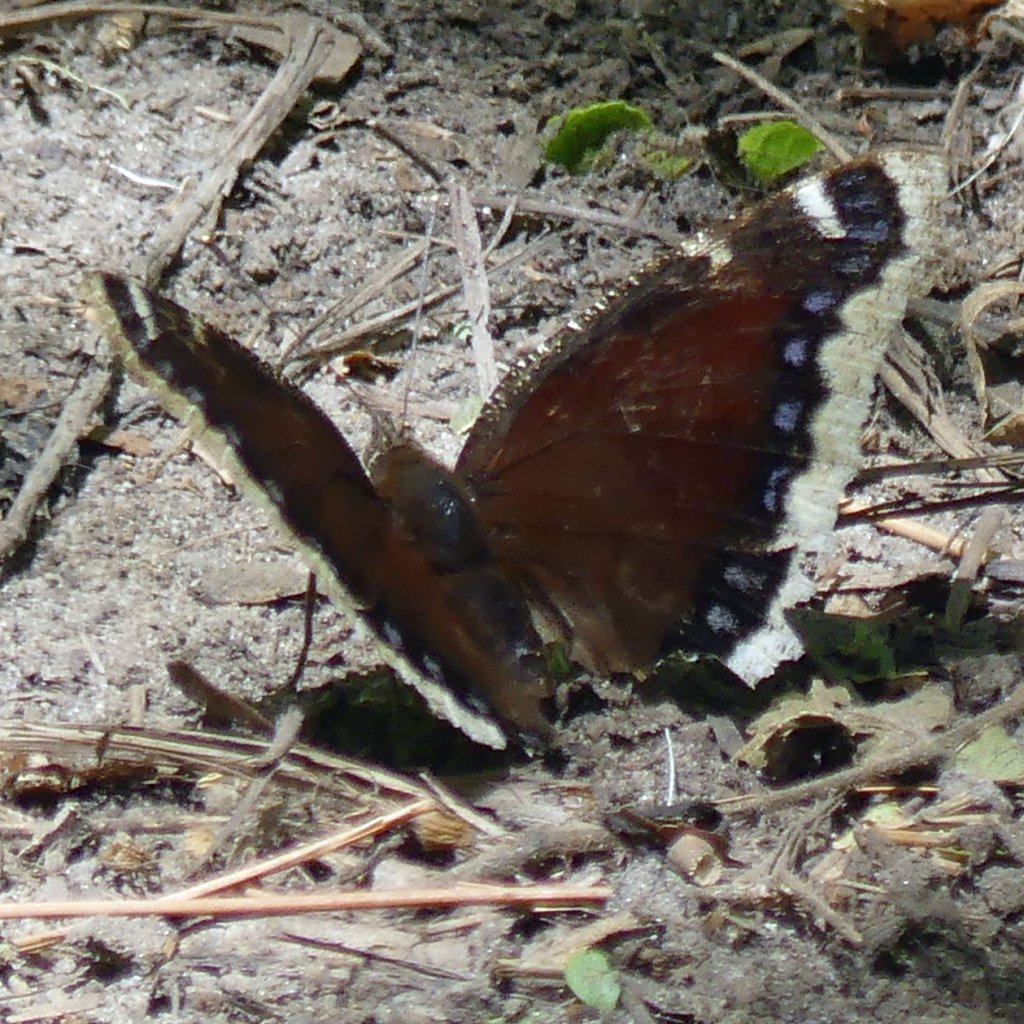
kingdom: Animalia
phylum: Arthropoda
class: Insecta
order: Lepidoptera
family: Nymphalidae
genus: Nymphalis
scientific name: Nymphalis antiopa
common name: Mourning Cloak
